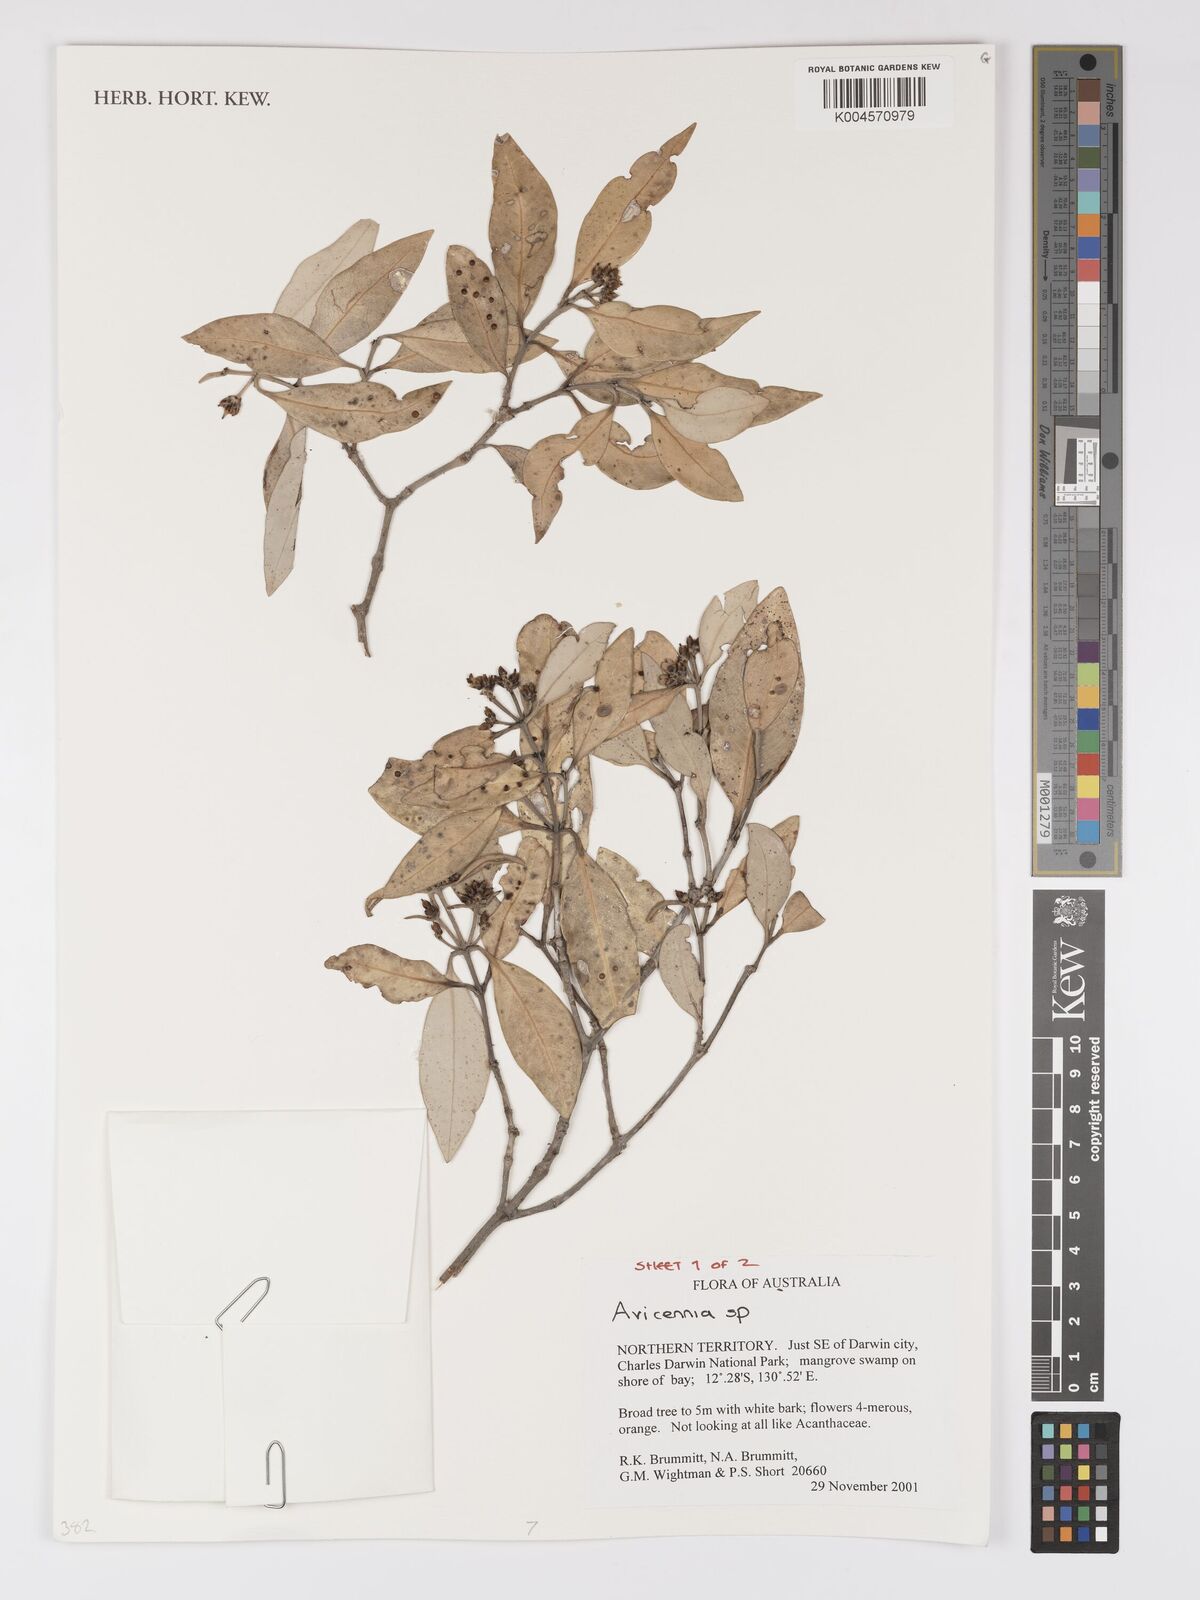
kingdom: Plantae
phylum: Tracheophyta
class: Magnoliopsida
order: Lamiales
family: Acanthaceae
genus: Avicennia
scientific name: Avicennia
